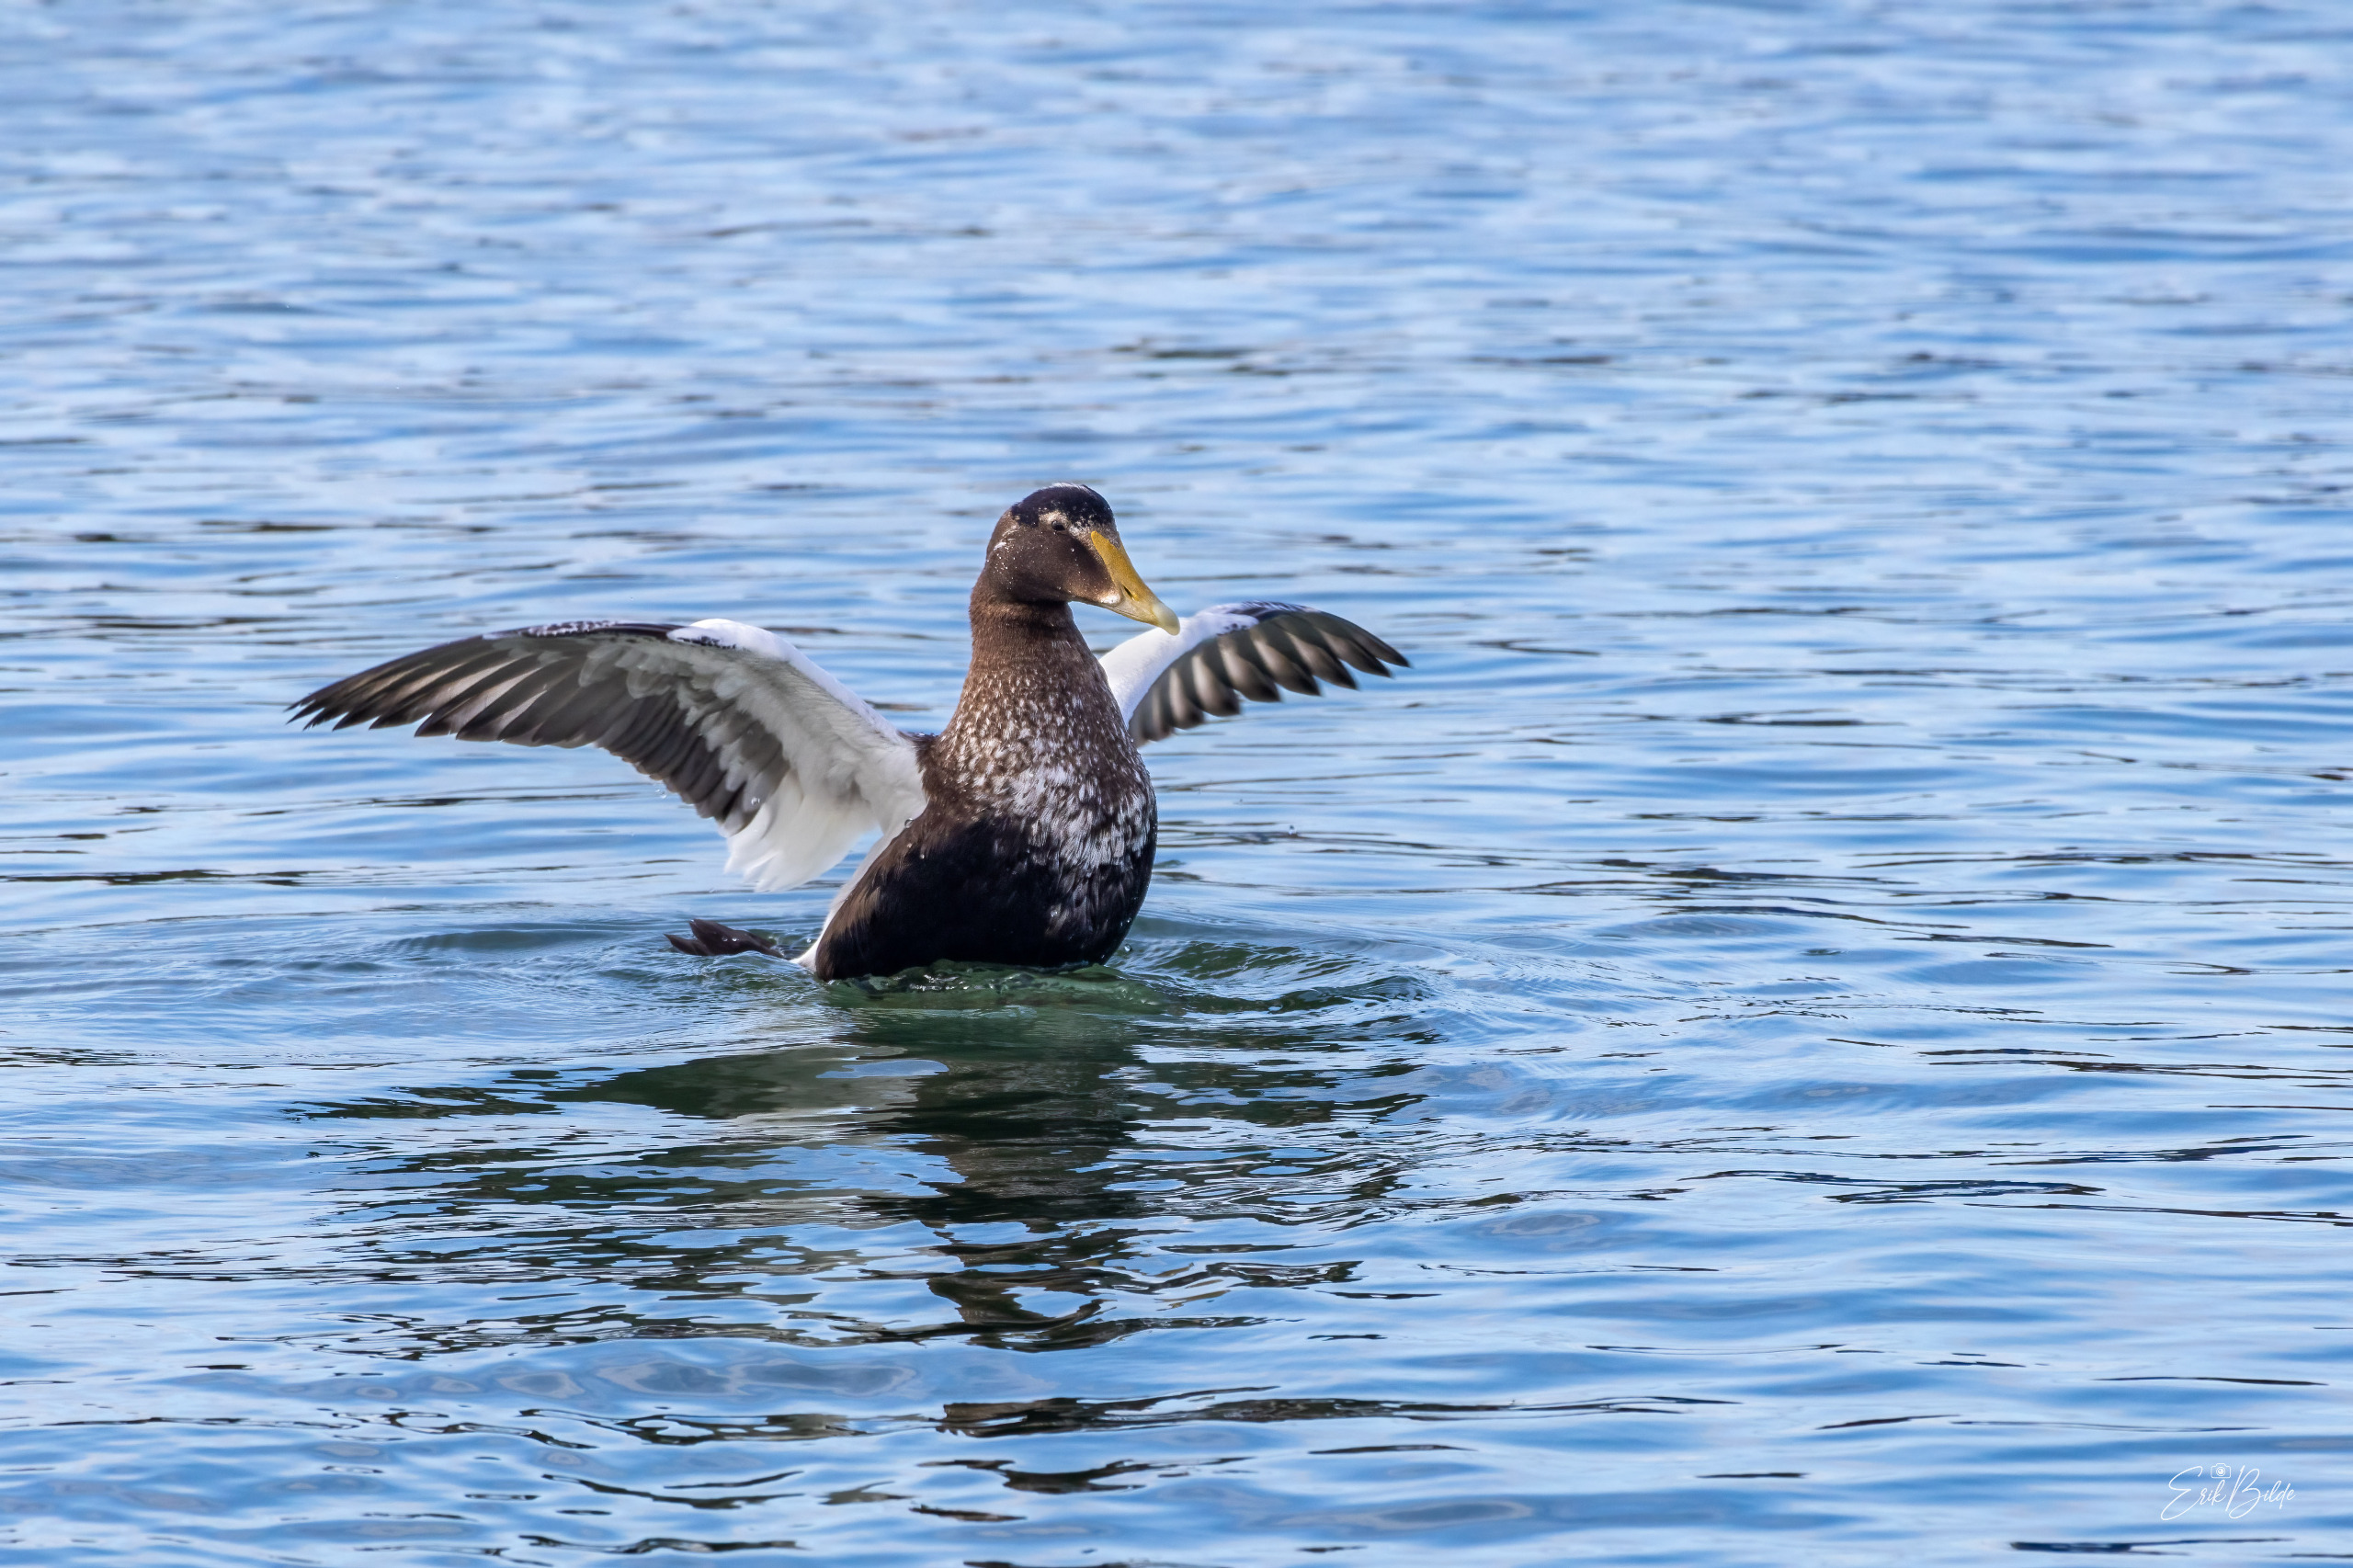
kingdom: Animalia
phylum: Chordata
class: Aves
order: Anseriformes
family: Anatidae
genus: Somateria
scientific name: Somateria mollissima
